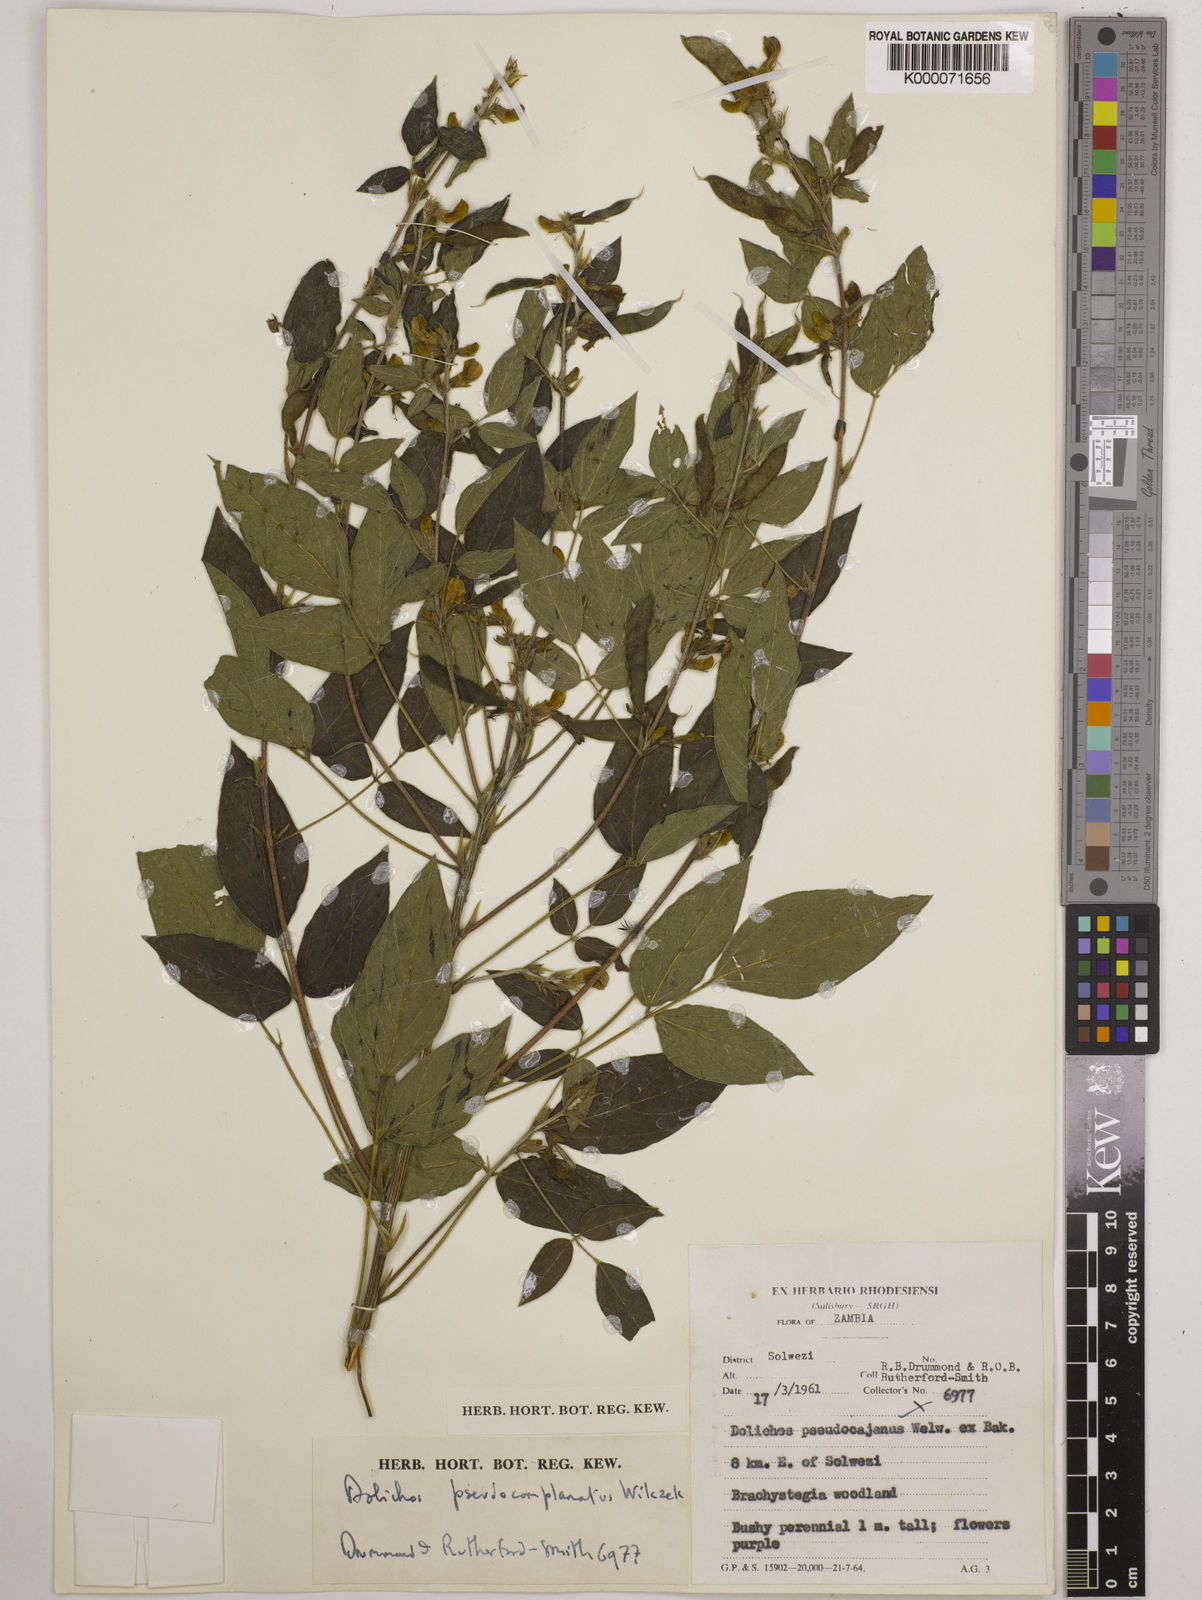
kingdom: Plantae
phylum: Tracheophyta
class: Magnoliopsida
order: Fabales
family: Fabaceae
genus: Dolichos
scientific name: Dolichos
